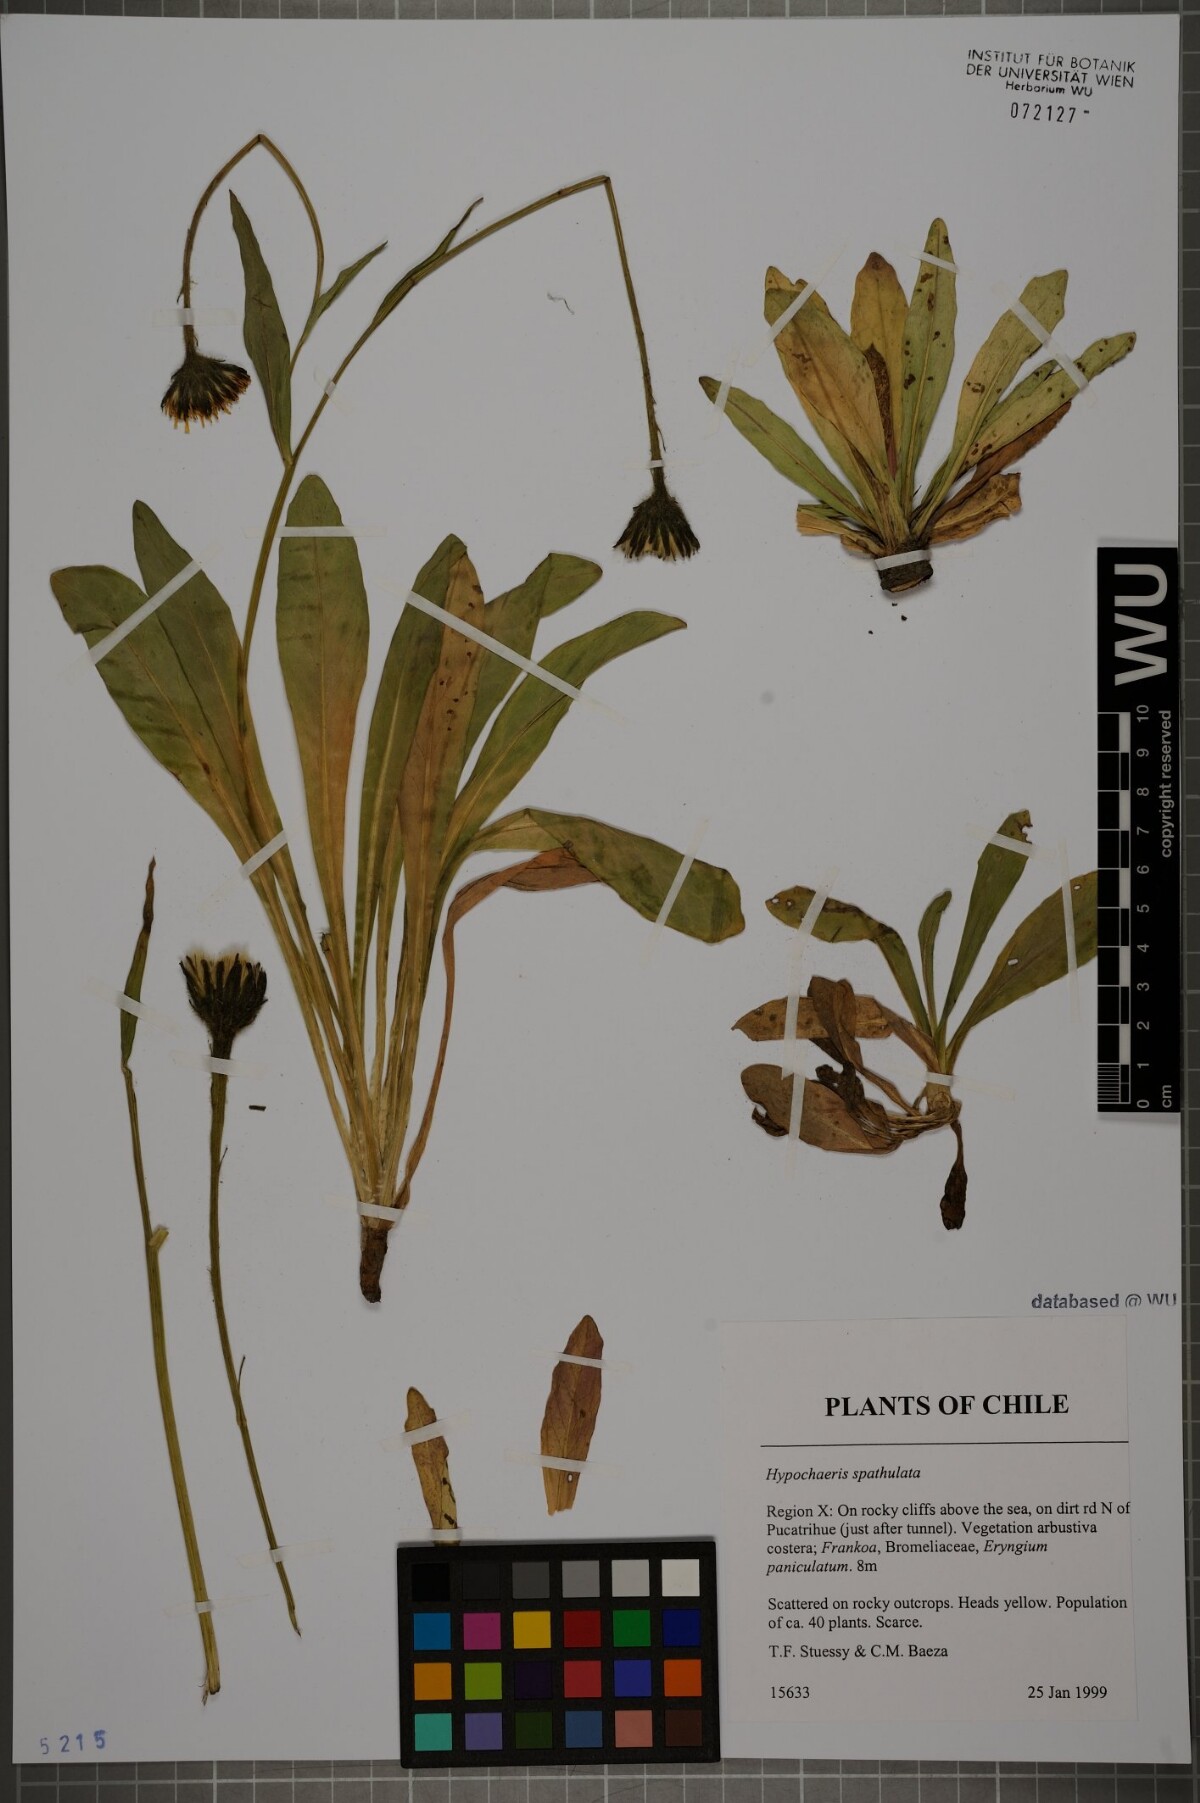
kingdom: Plantae
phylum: Tracheophyta
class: Magnoliopsida
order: Asterales
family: Asteraceae
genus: Hypochaeris
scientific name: Hypochaeris spathulata
